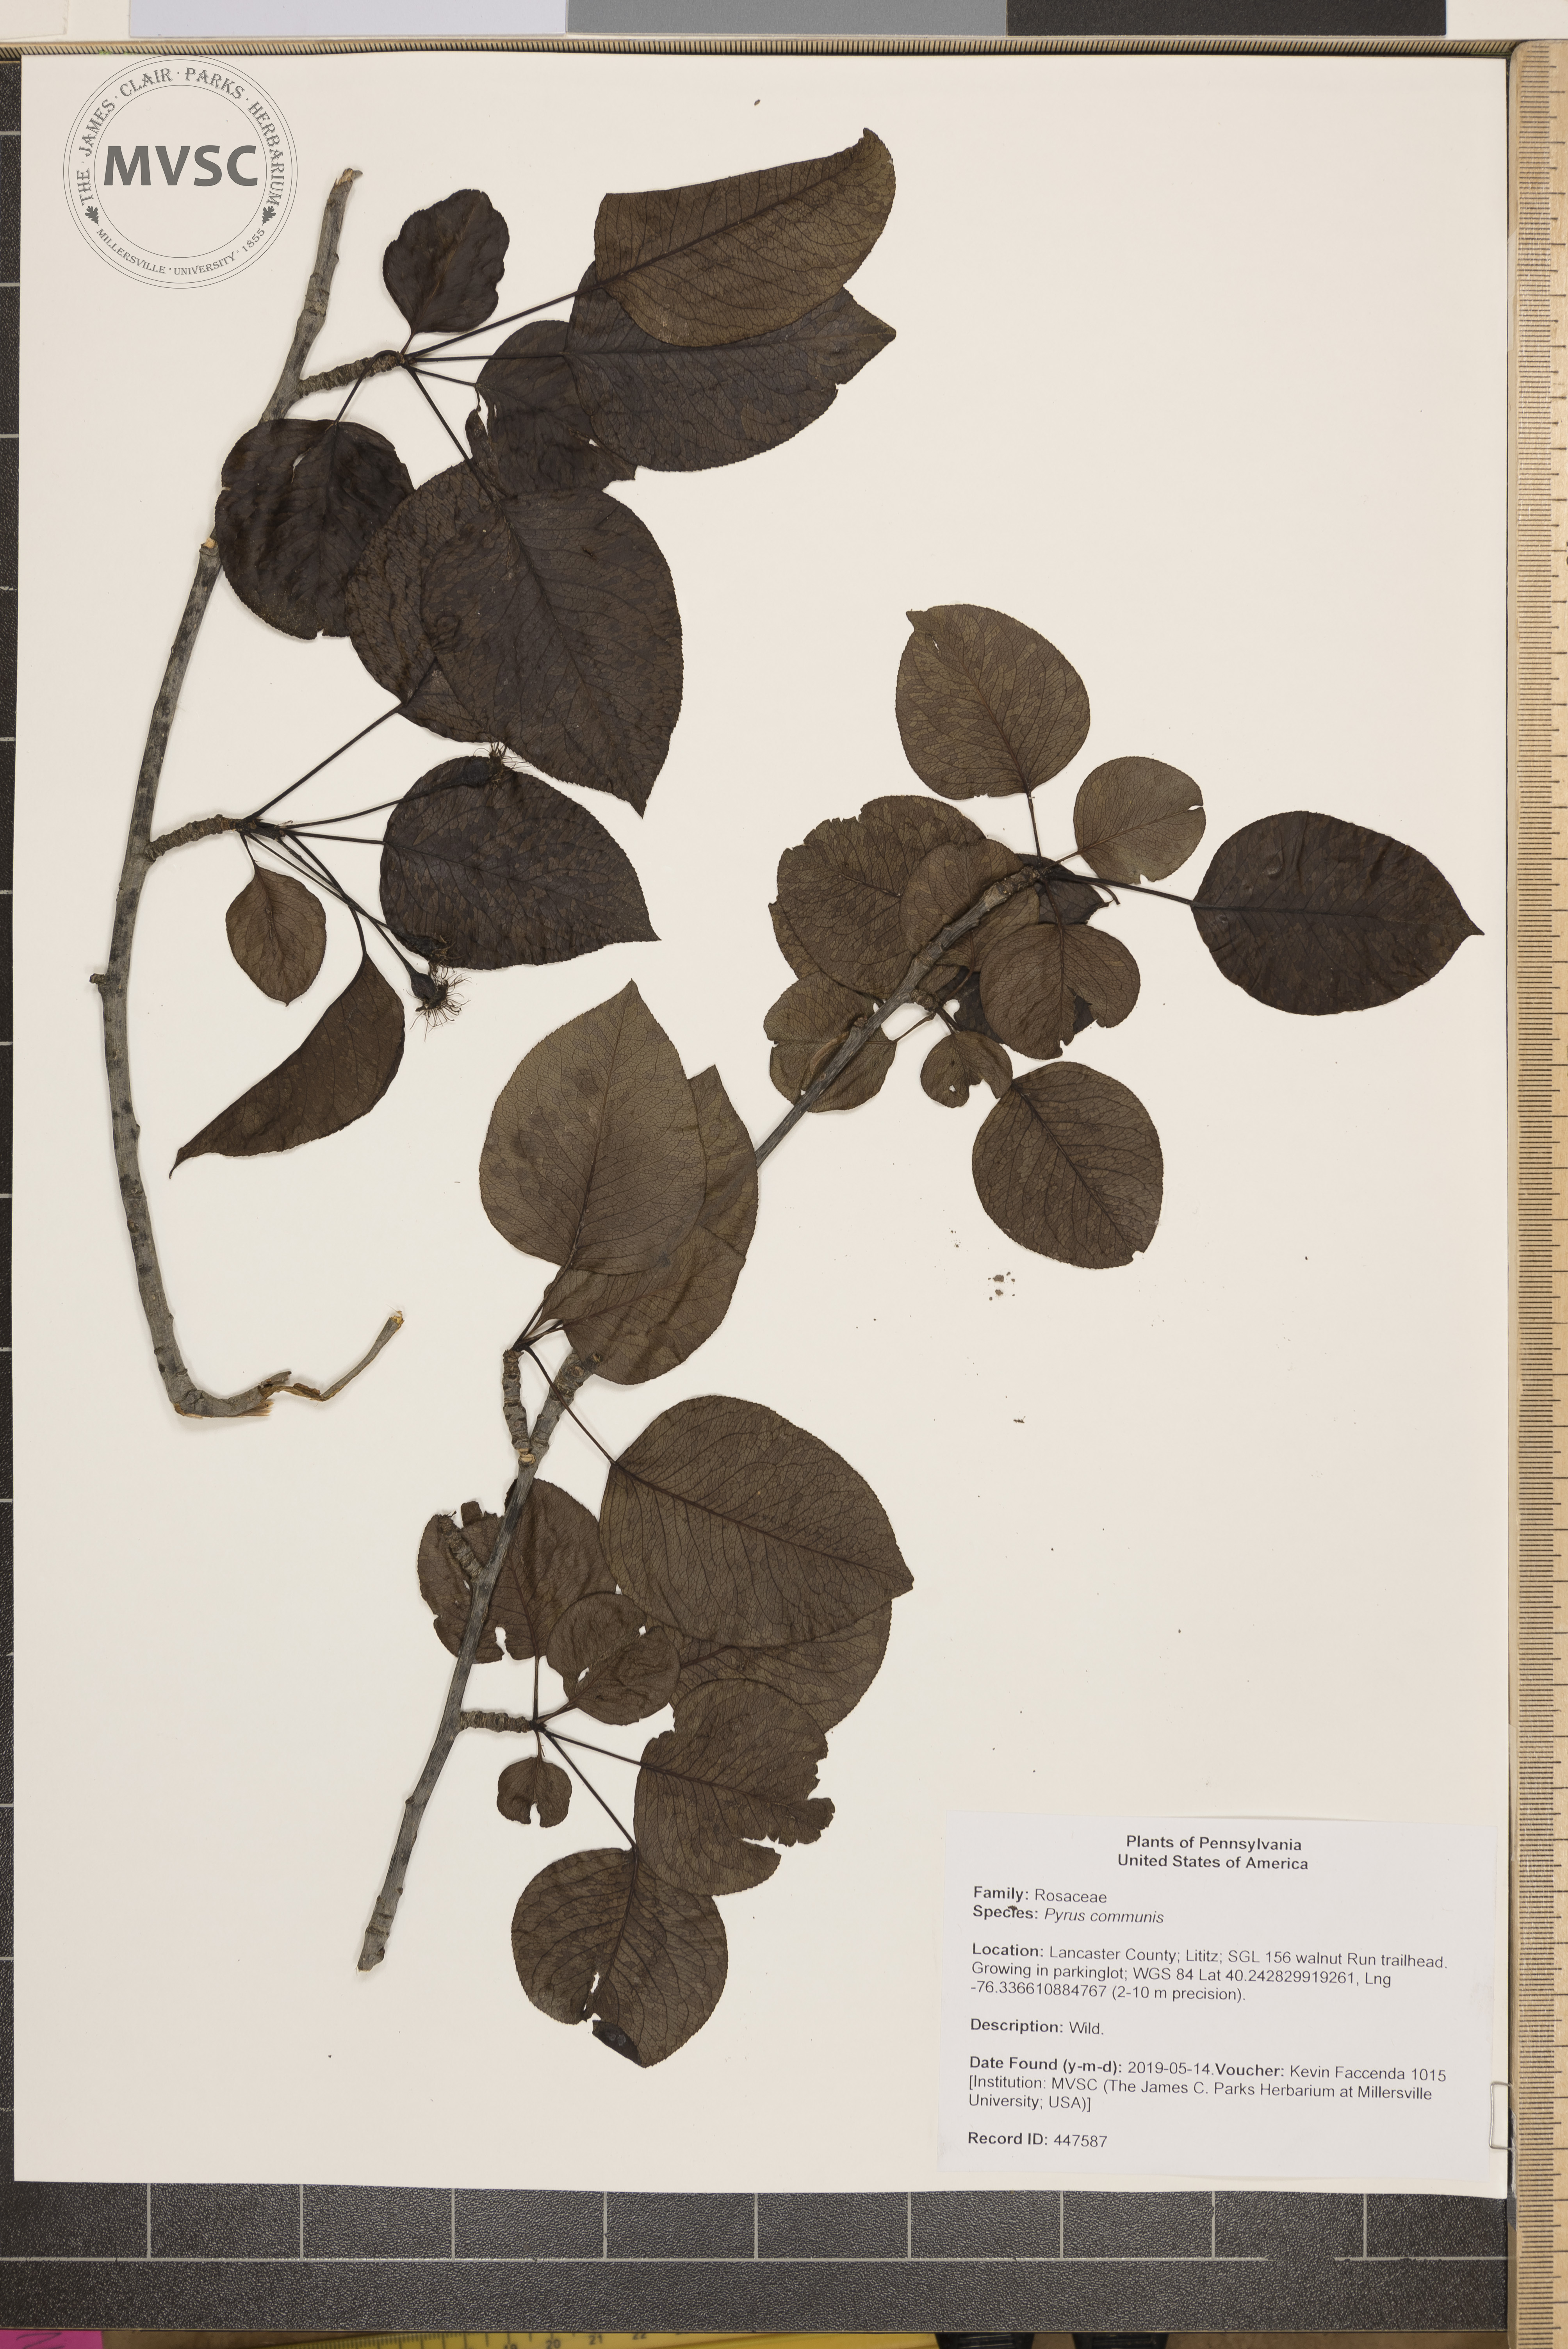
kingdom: Plantae
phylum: Tracheophyta
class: Magnoliopsida
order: Rosales
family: Rosaceae
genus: Pyrus
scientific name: Pyrus communis
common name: Pear
